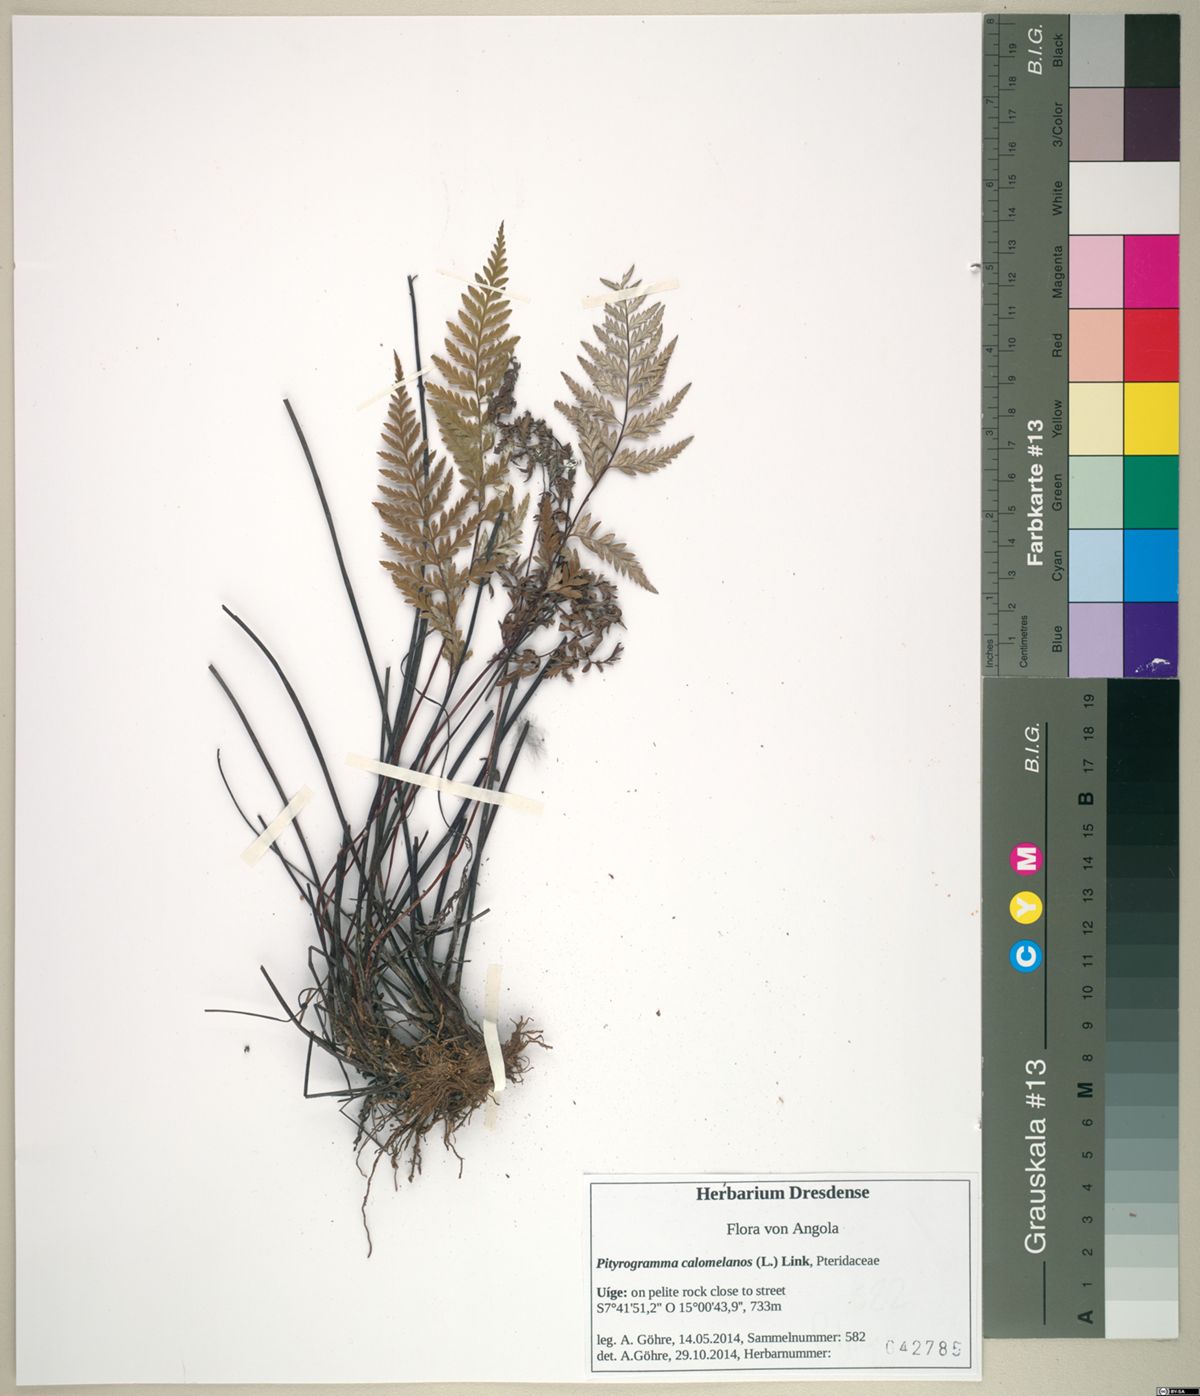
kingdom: Plantae
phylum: Tracheophyta
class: Polypodiopsida
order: Polypodiales
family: Pteridaceae
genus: Pityrogramma
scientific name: Pityrogramma calomelanos
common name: Dixie silverback fern
